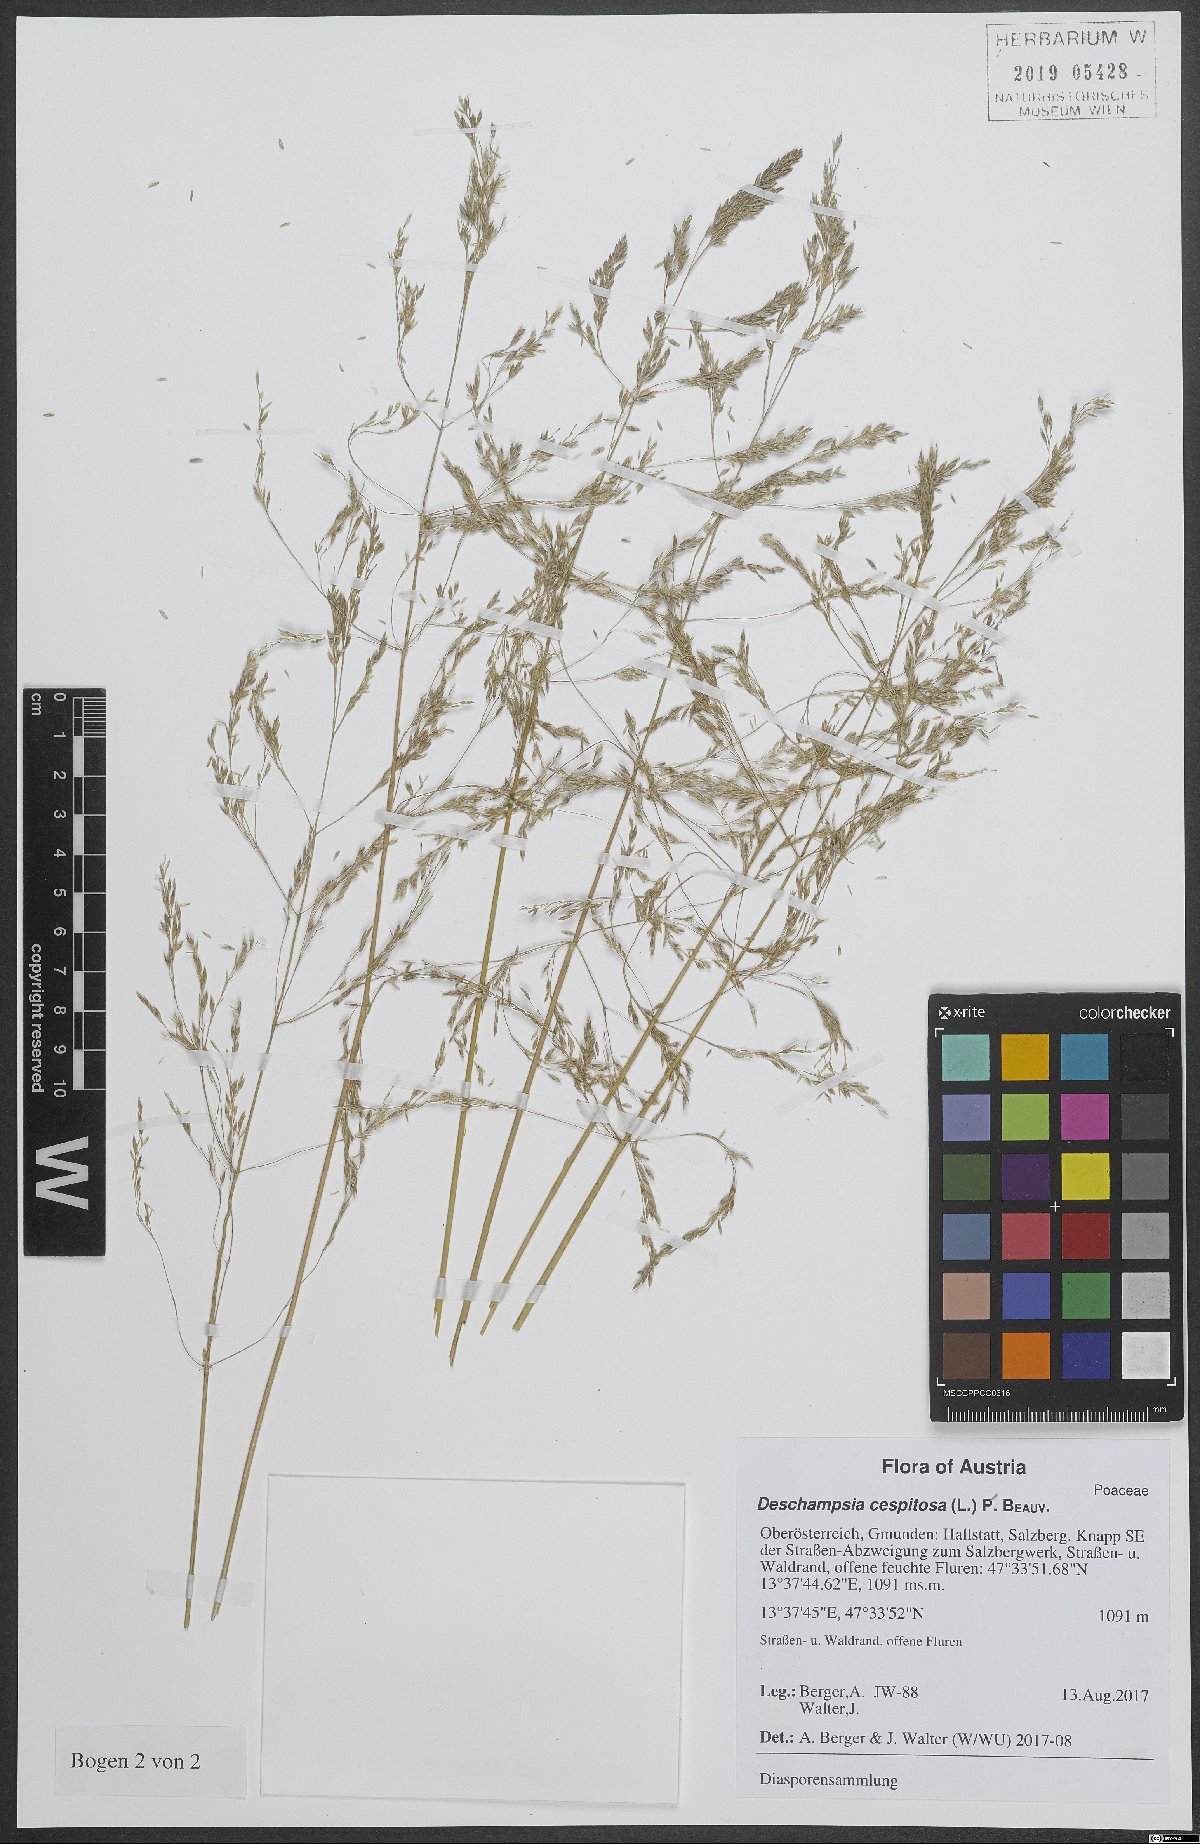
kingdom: Plantae
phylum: Tracheophyta
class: Liliopsida
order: Poales
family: Poaceae
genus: Deschampsia
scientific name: Deschampsia cespitosa
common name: Tufted hair-grass
